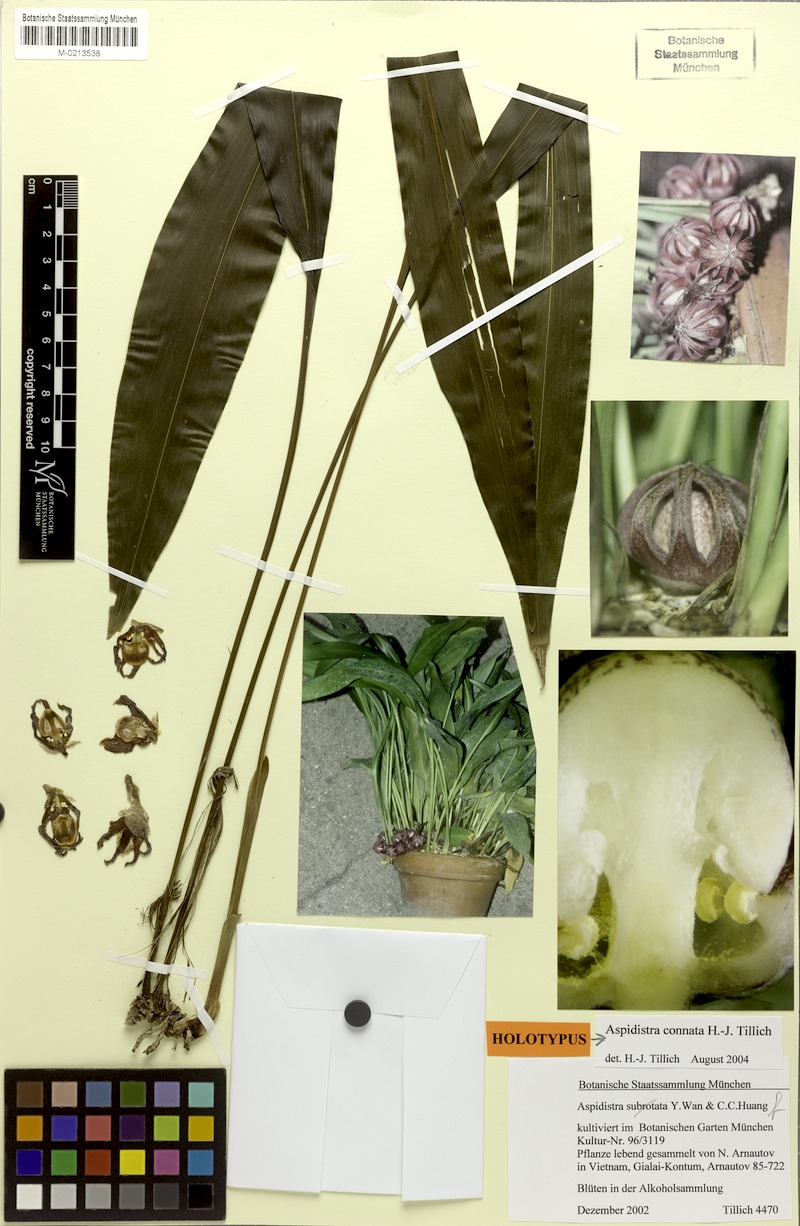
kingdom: Plantae
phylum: Tracheophyta
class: Liliopsida
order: Asparagales
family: Asparagaceae
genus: Aspidistra
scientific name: Aspidistra connata
